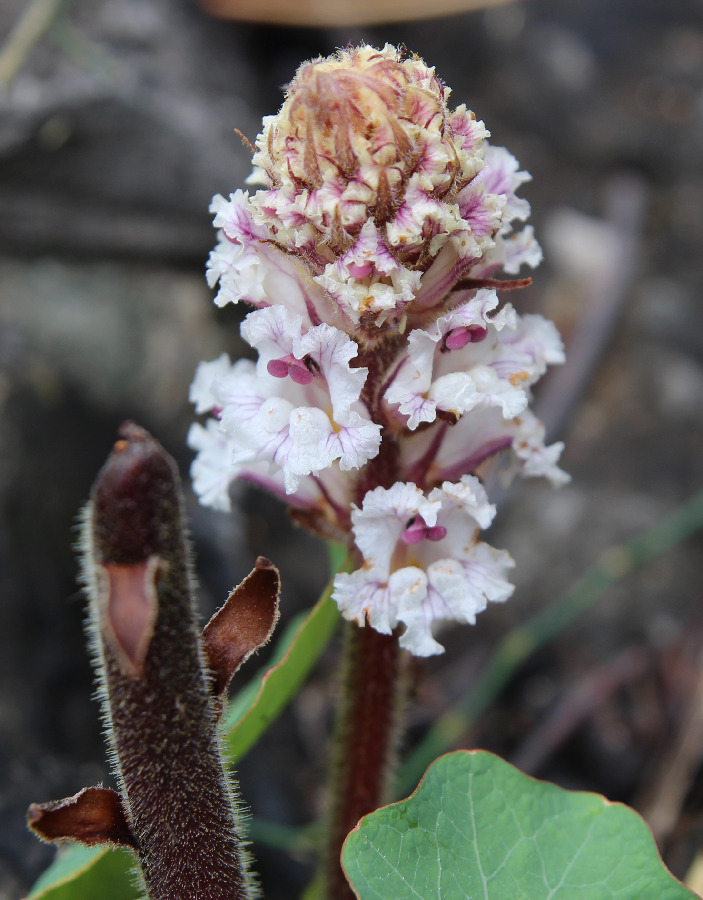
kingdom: Plantae
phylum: Tracheophyta
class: Magnoliopsida
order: Lamiales
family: Orobanchaceae
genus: Orobanche
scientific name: Orobanche crenata
